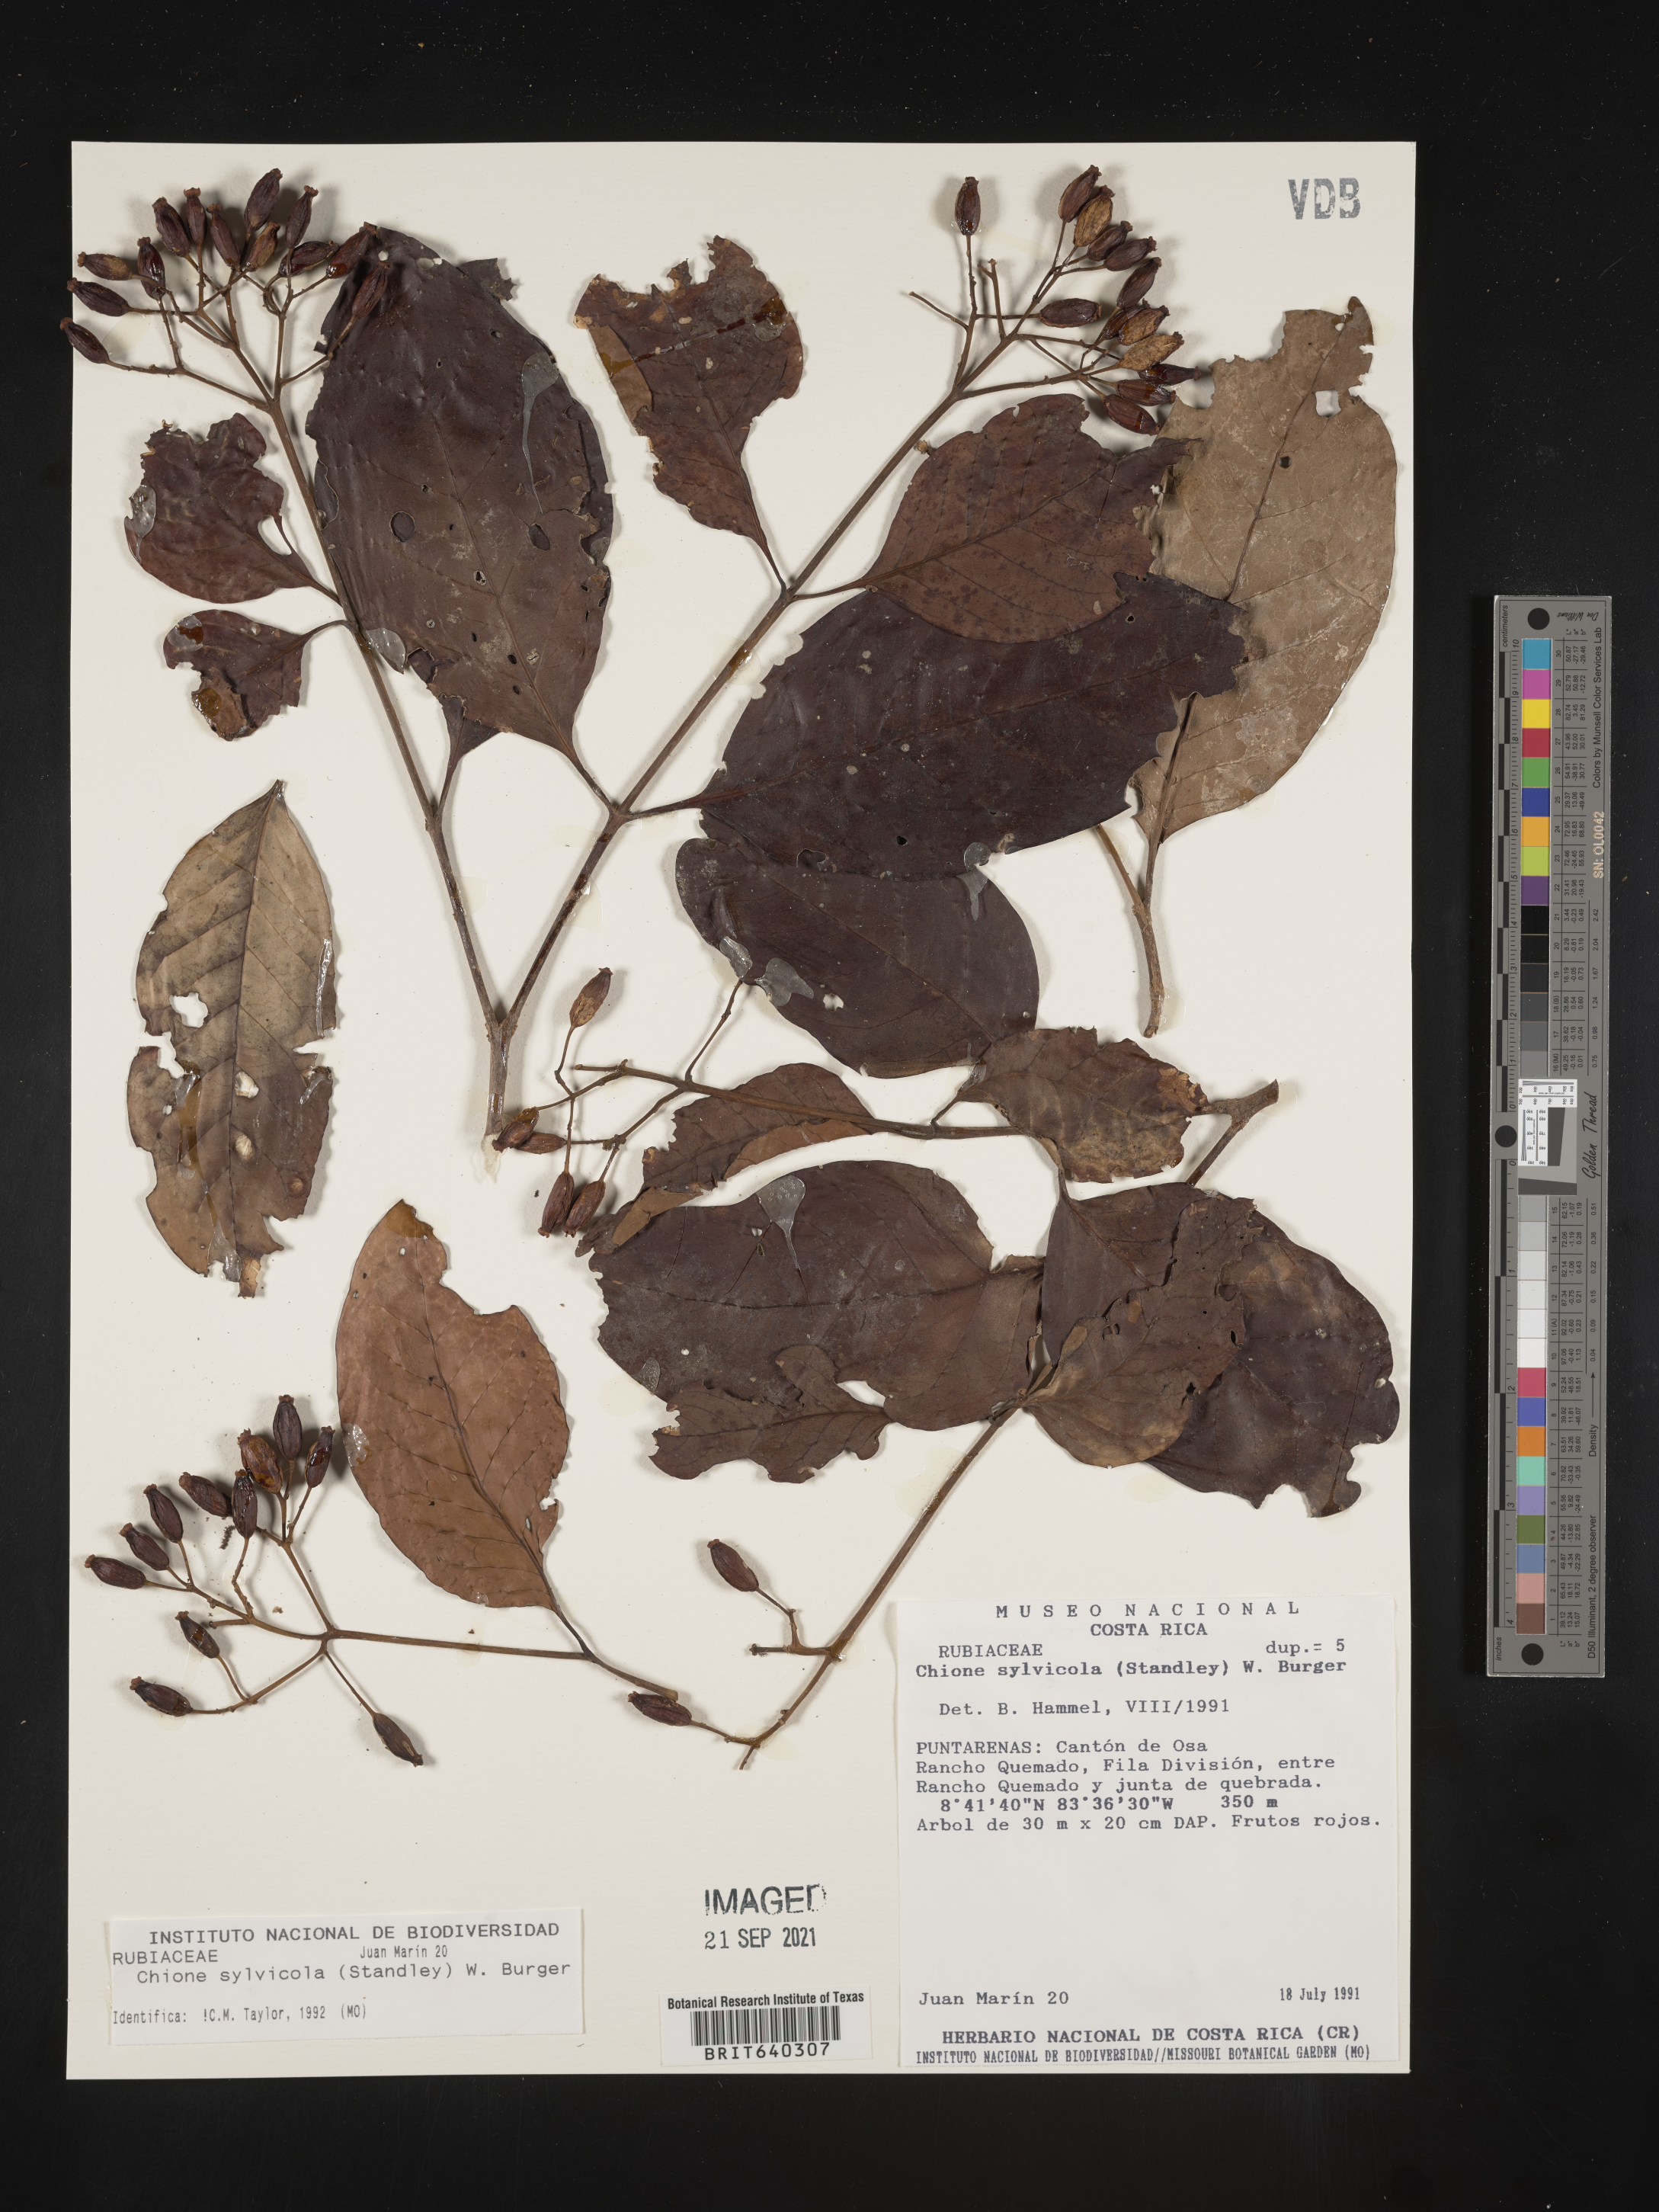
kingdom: Plantae
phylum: Tracheophyta
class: Magnoliopsida
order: Gentianales
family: Rubiaceae
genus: Chione
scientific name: Chione
